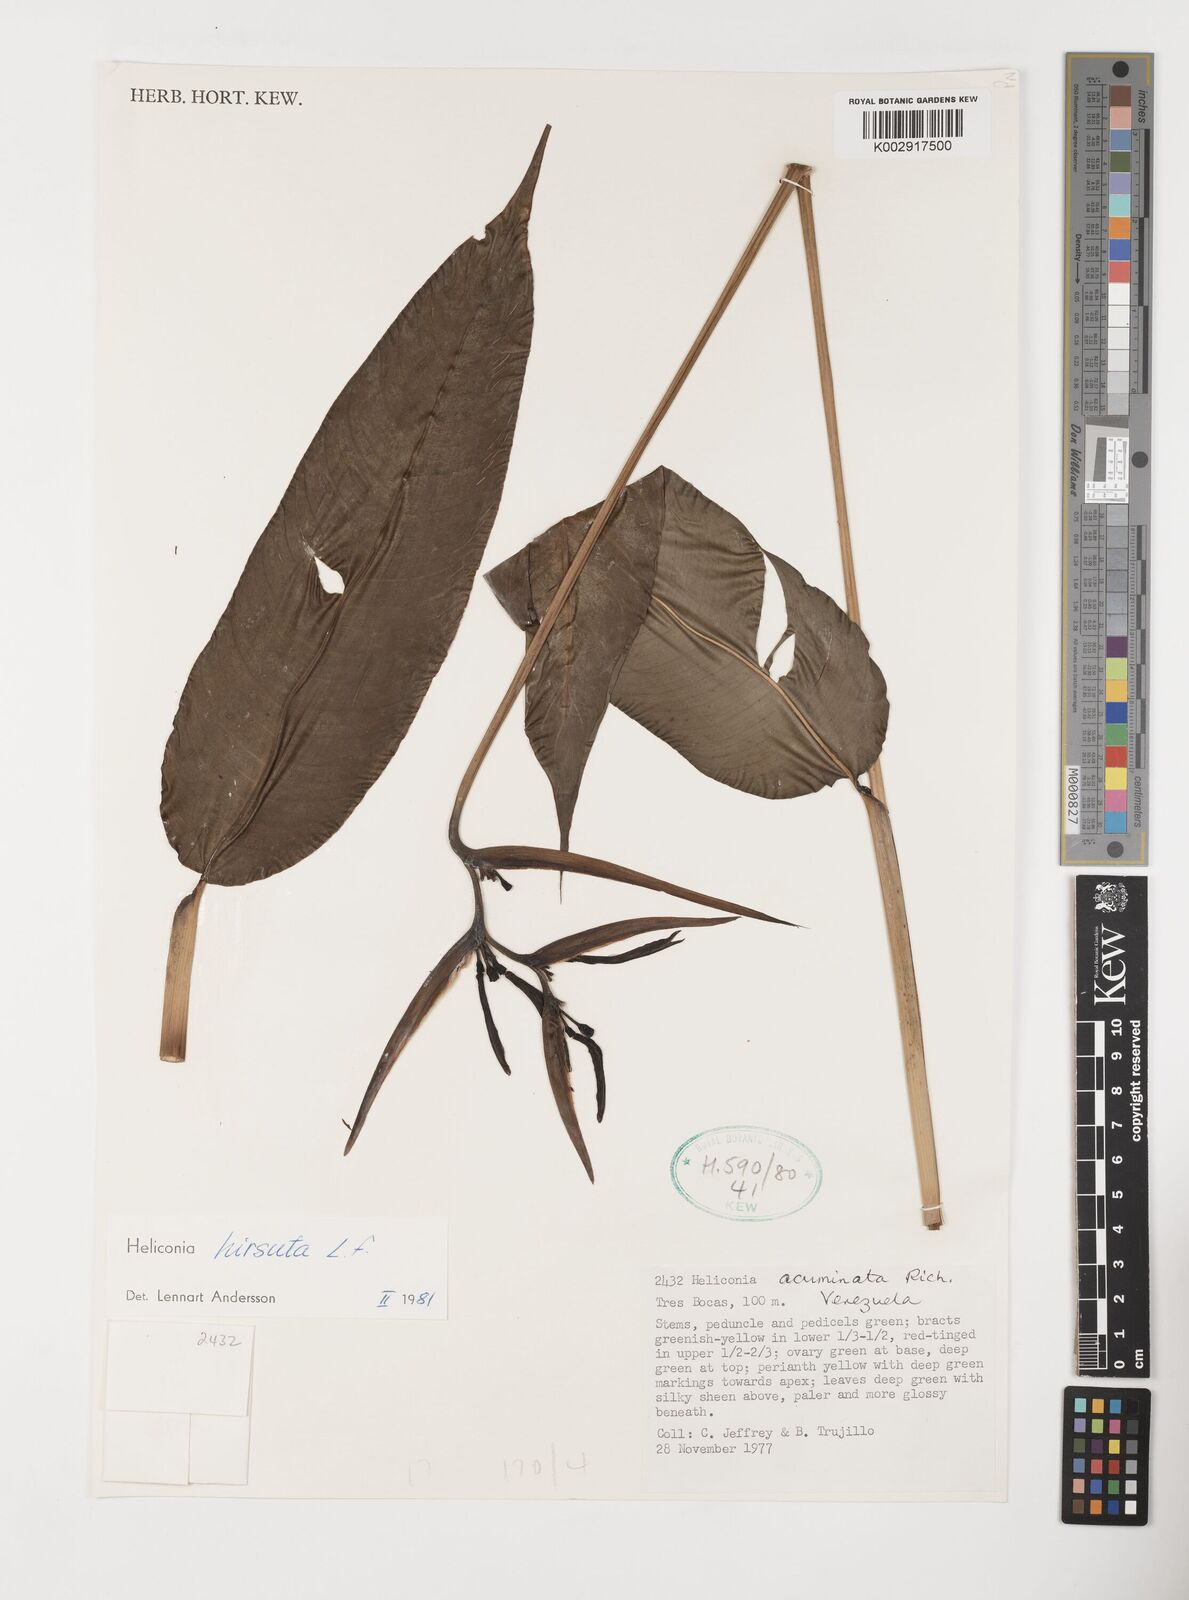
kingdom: Plantae
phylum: Tracheophyta
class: Liliopsida
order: Zingiberales
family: Heliconiaceae
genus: Heliconia
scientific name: Heliconia hirsuta
